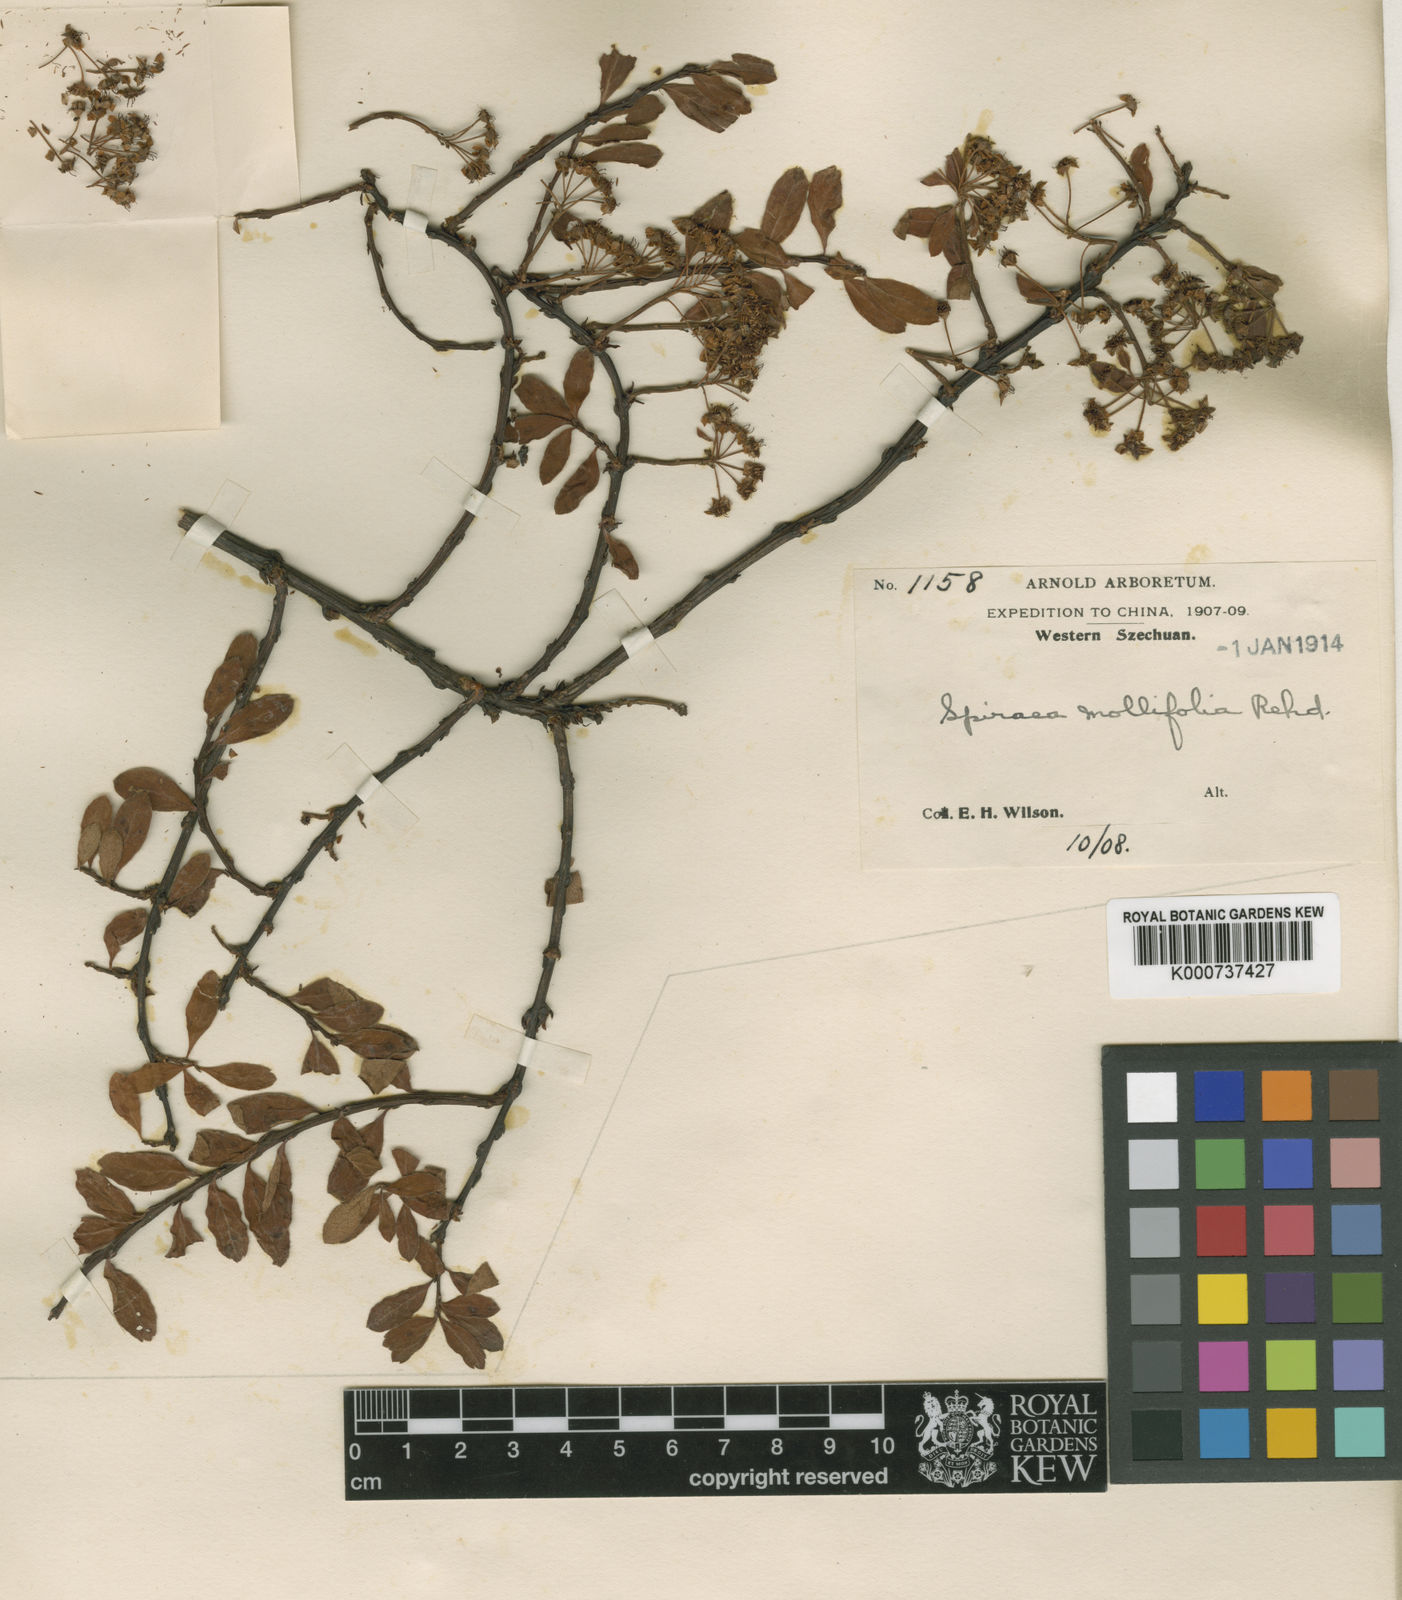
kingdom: Plantae
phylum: Tracheophyta
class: Magnoliopsida
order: Rosales
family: Rosaceae
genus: Spiraea
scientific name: Spiraea mollifolia
